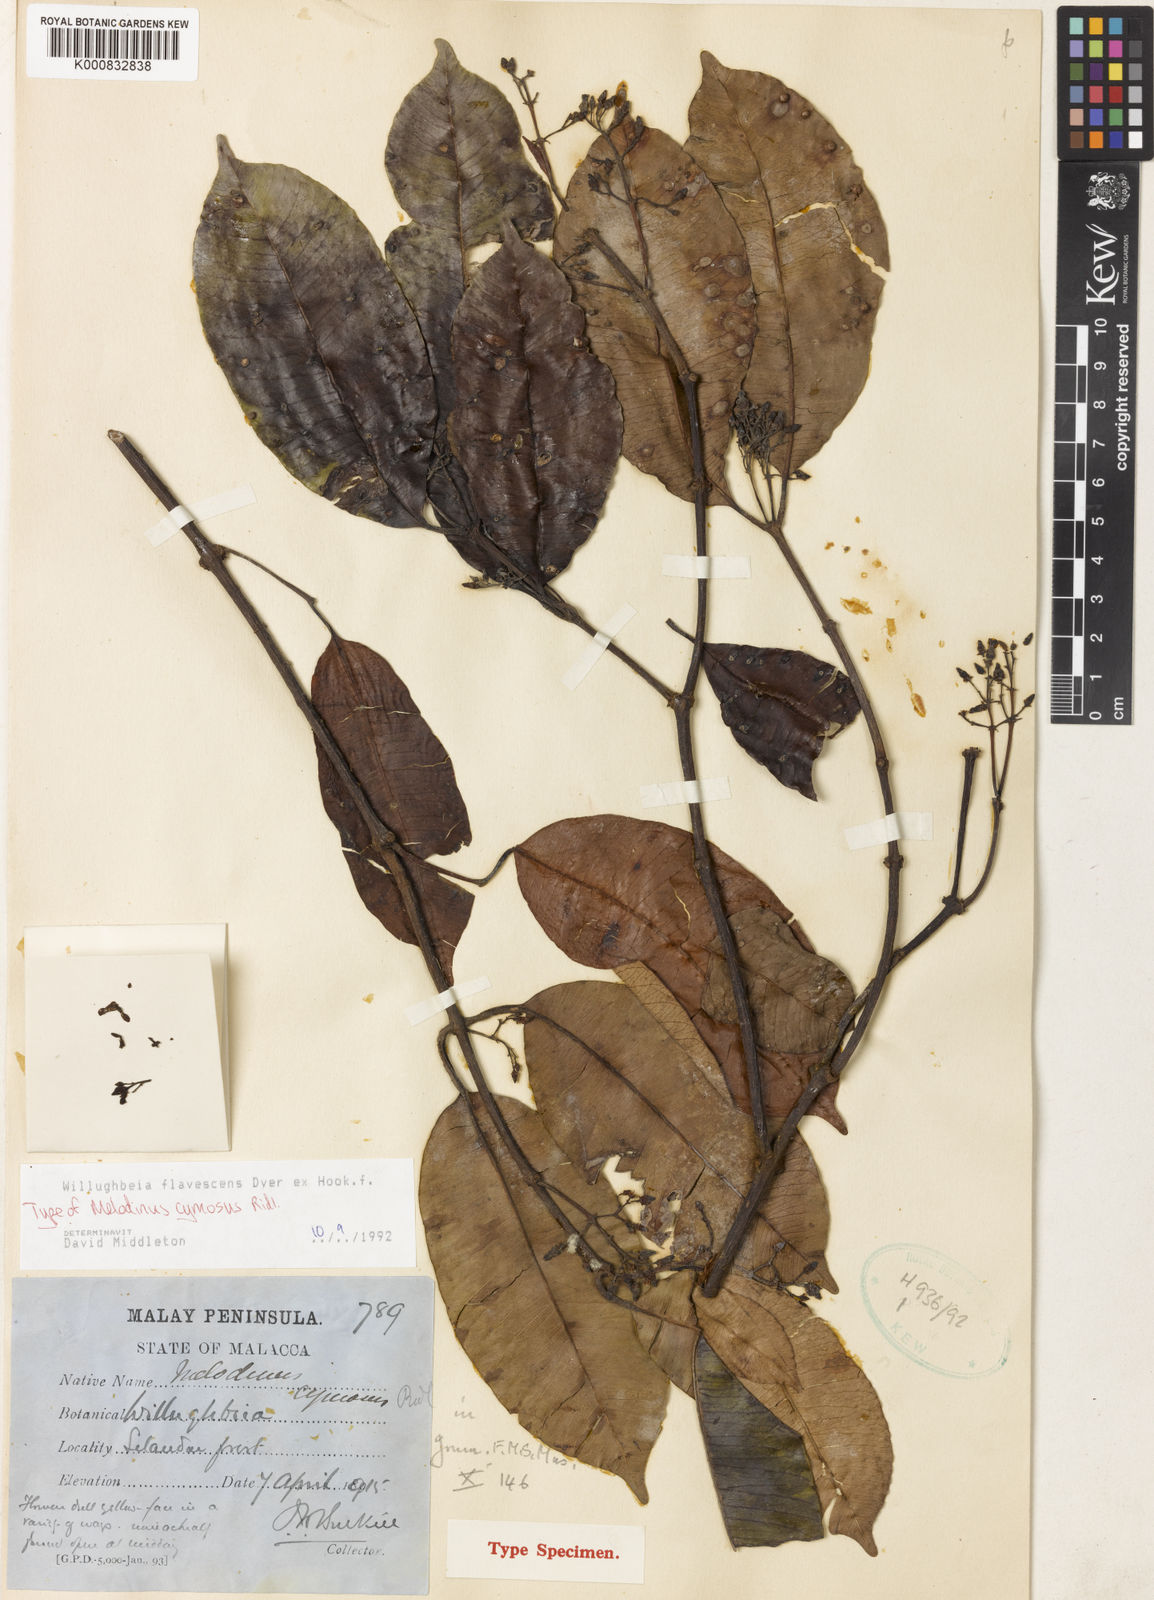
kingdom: Plantae
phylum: Tracheophyta
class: Magnoliopsida
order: Gentianales
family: Apocynaceae
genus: Willughbeia
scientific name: Willughbeia flavescens
